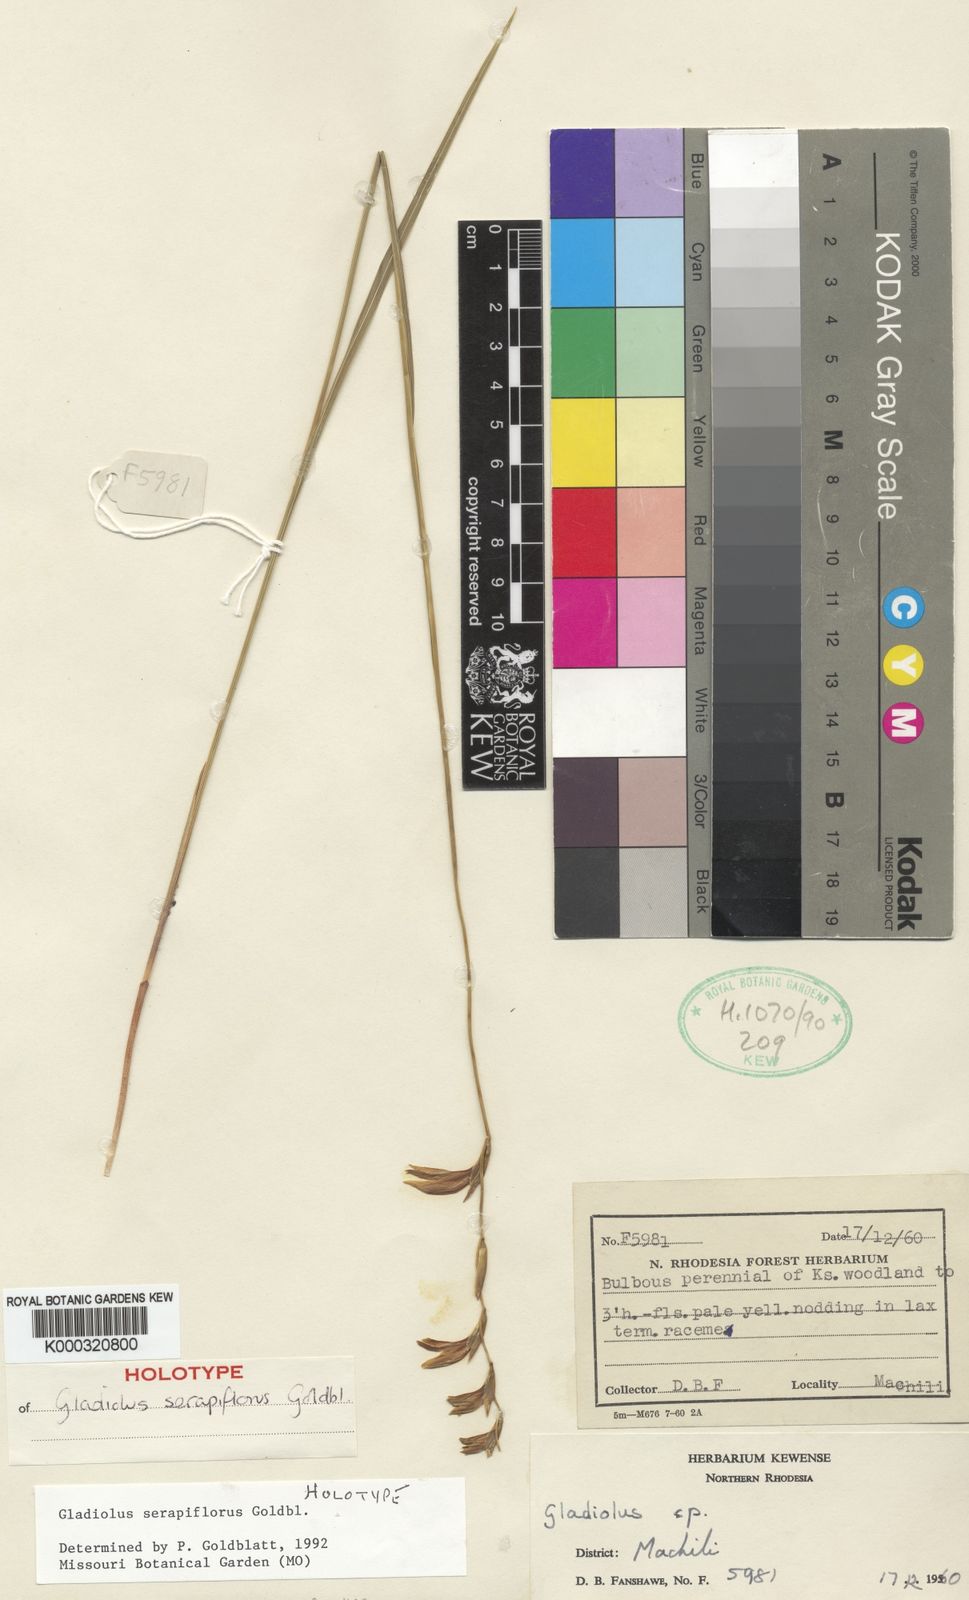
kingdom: Plantae
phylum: Tracheophyta
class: Liliopsida
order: Asparagales
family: Iridaceae
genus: Gladiolus
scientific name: Gladiolus serapiiflorus
